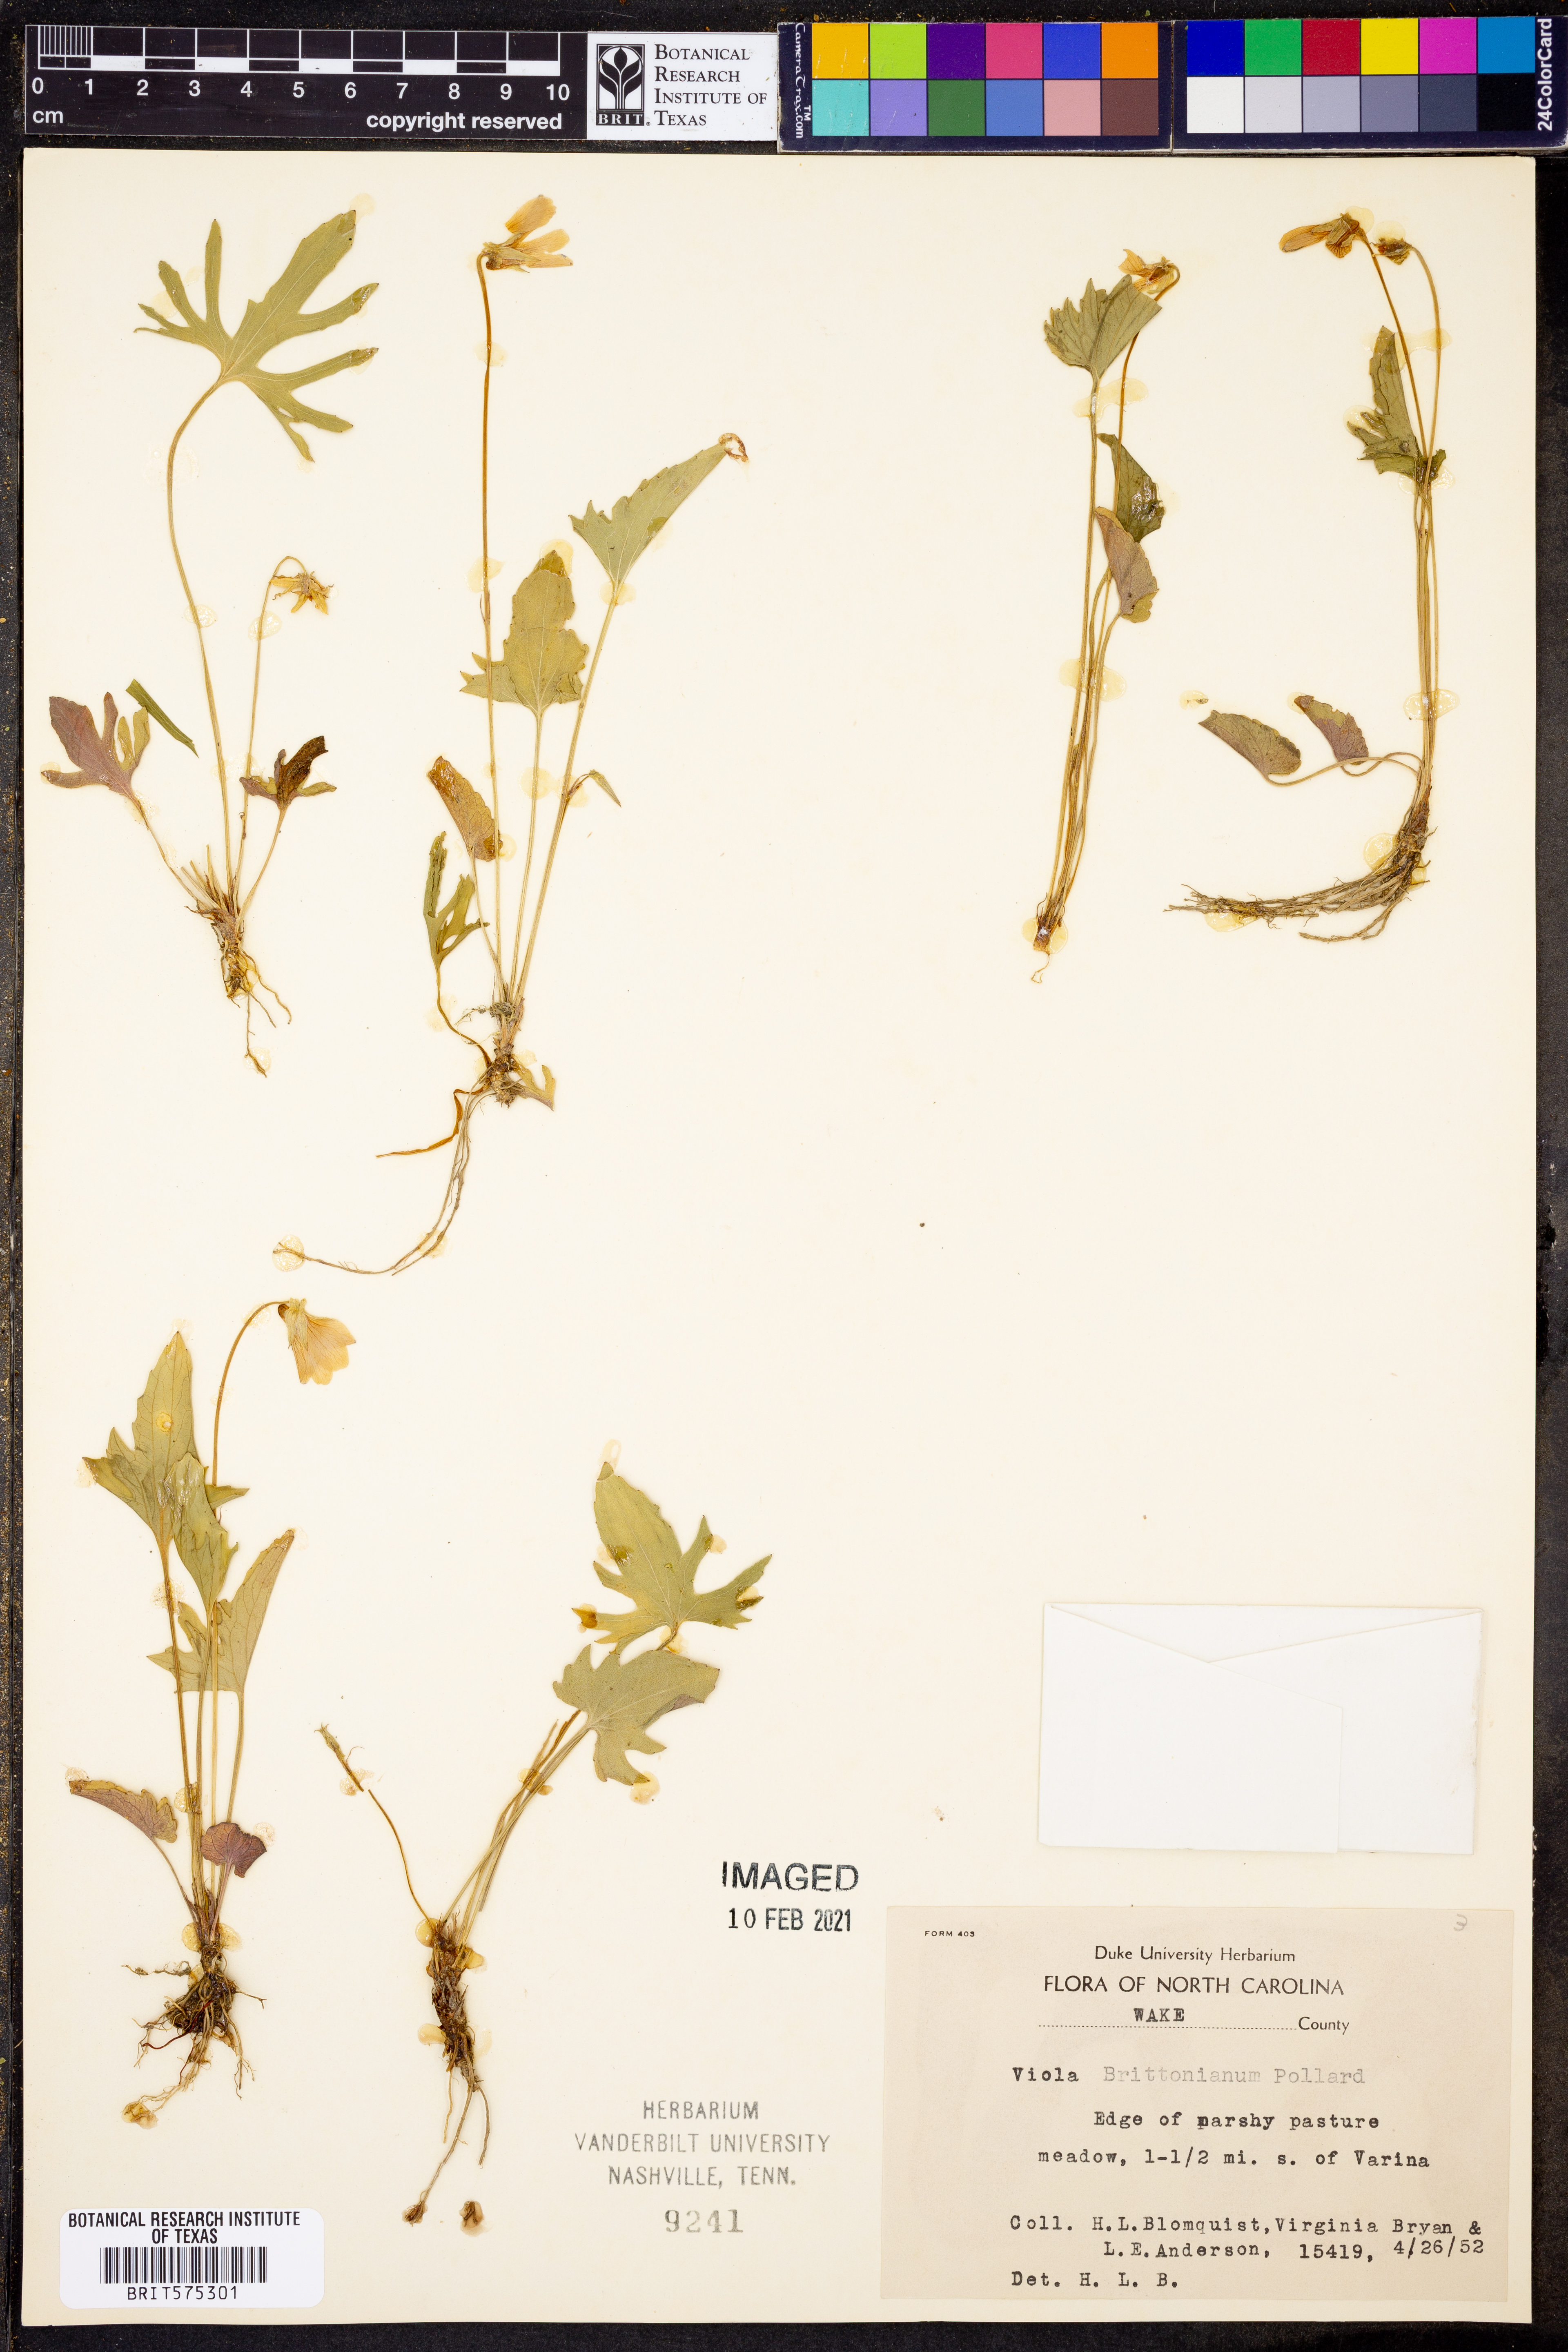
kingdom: Plantae
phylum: Tracheophyta
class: Magnoliopsida
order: Malpighiales
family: Violaceae
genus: Viola
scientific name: Viola brittoniana
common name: Northern coastal violet
